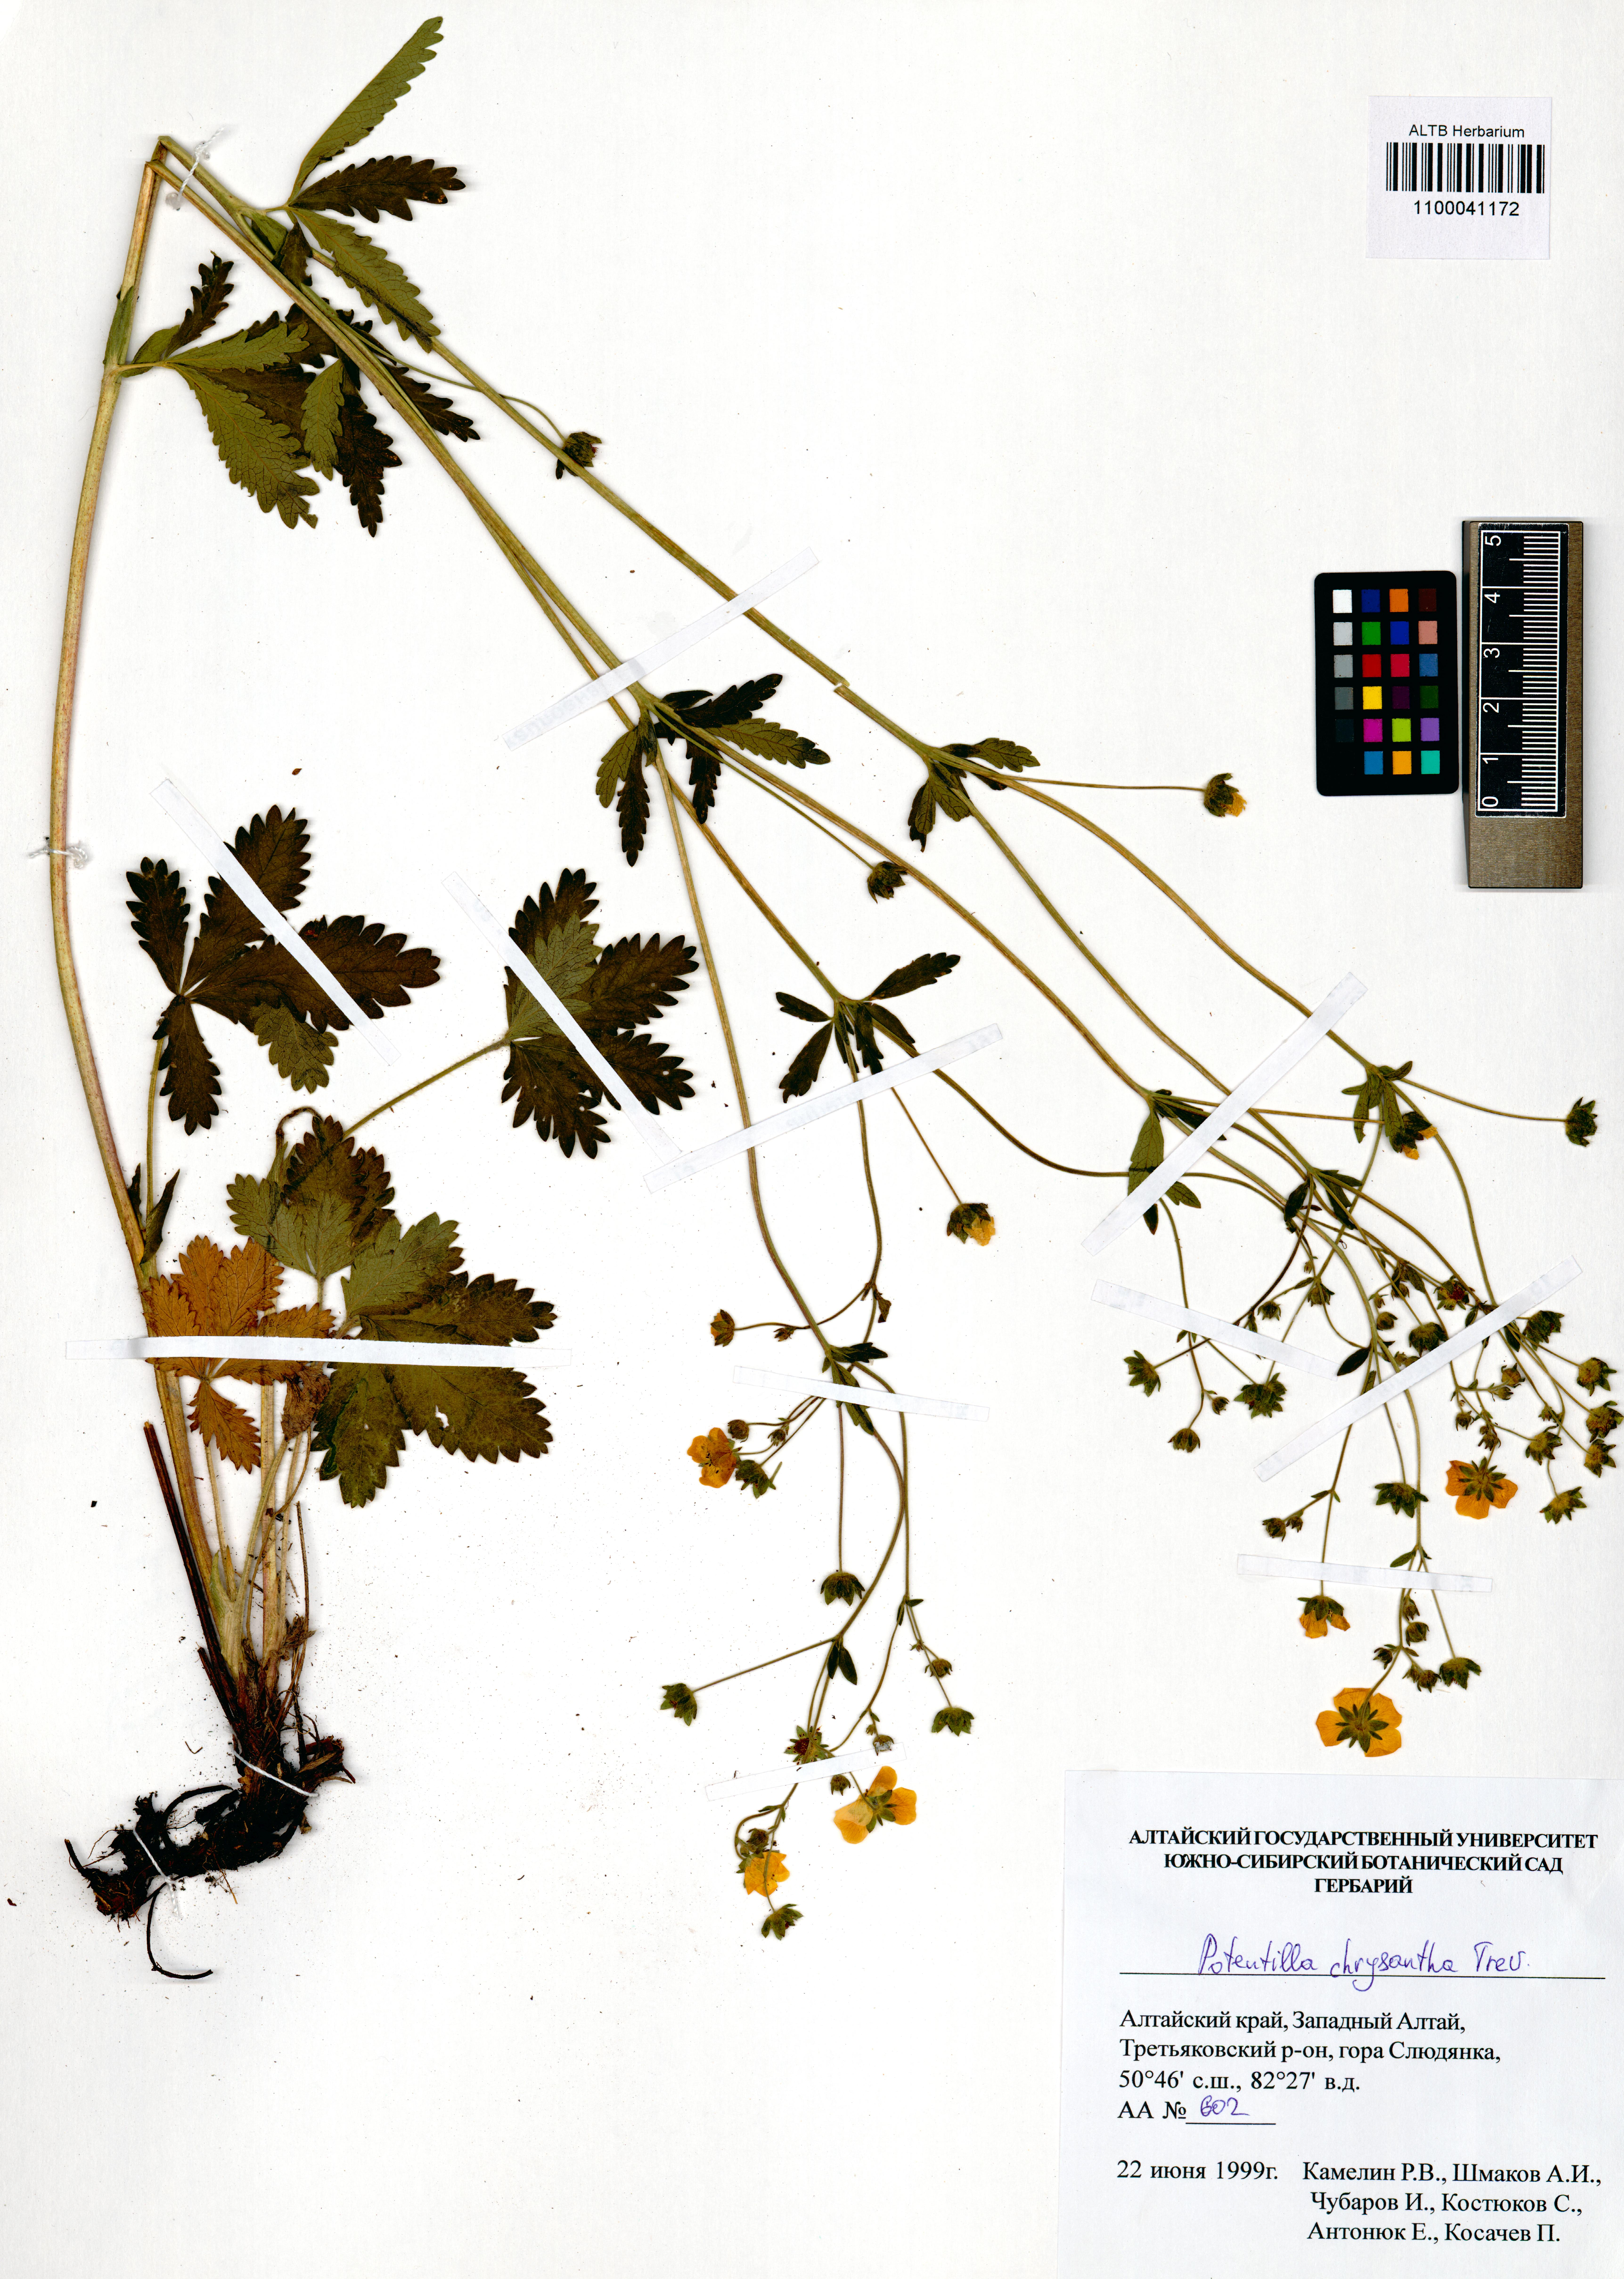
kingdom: Plantae
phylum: Tracheophyta
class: Magnoliopsida
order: Rosales
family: Rosaceae
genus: Potentilla
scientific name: Potentilla chrysantha
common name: Thuringian cinquefoil
